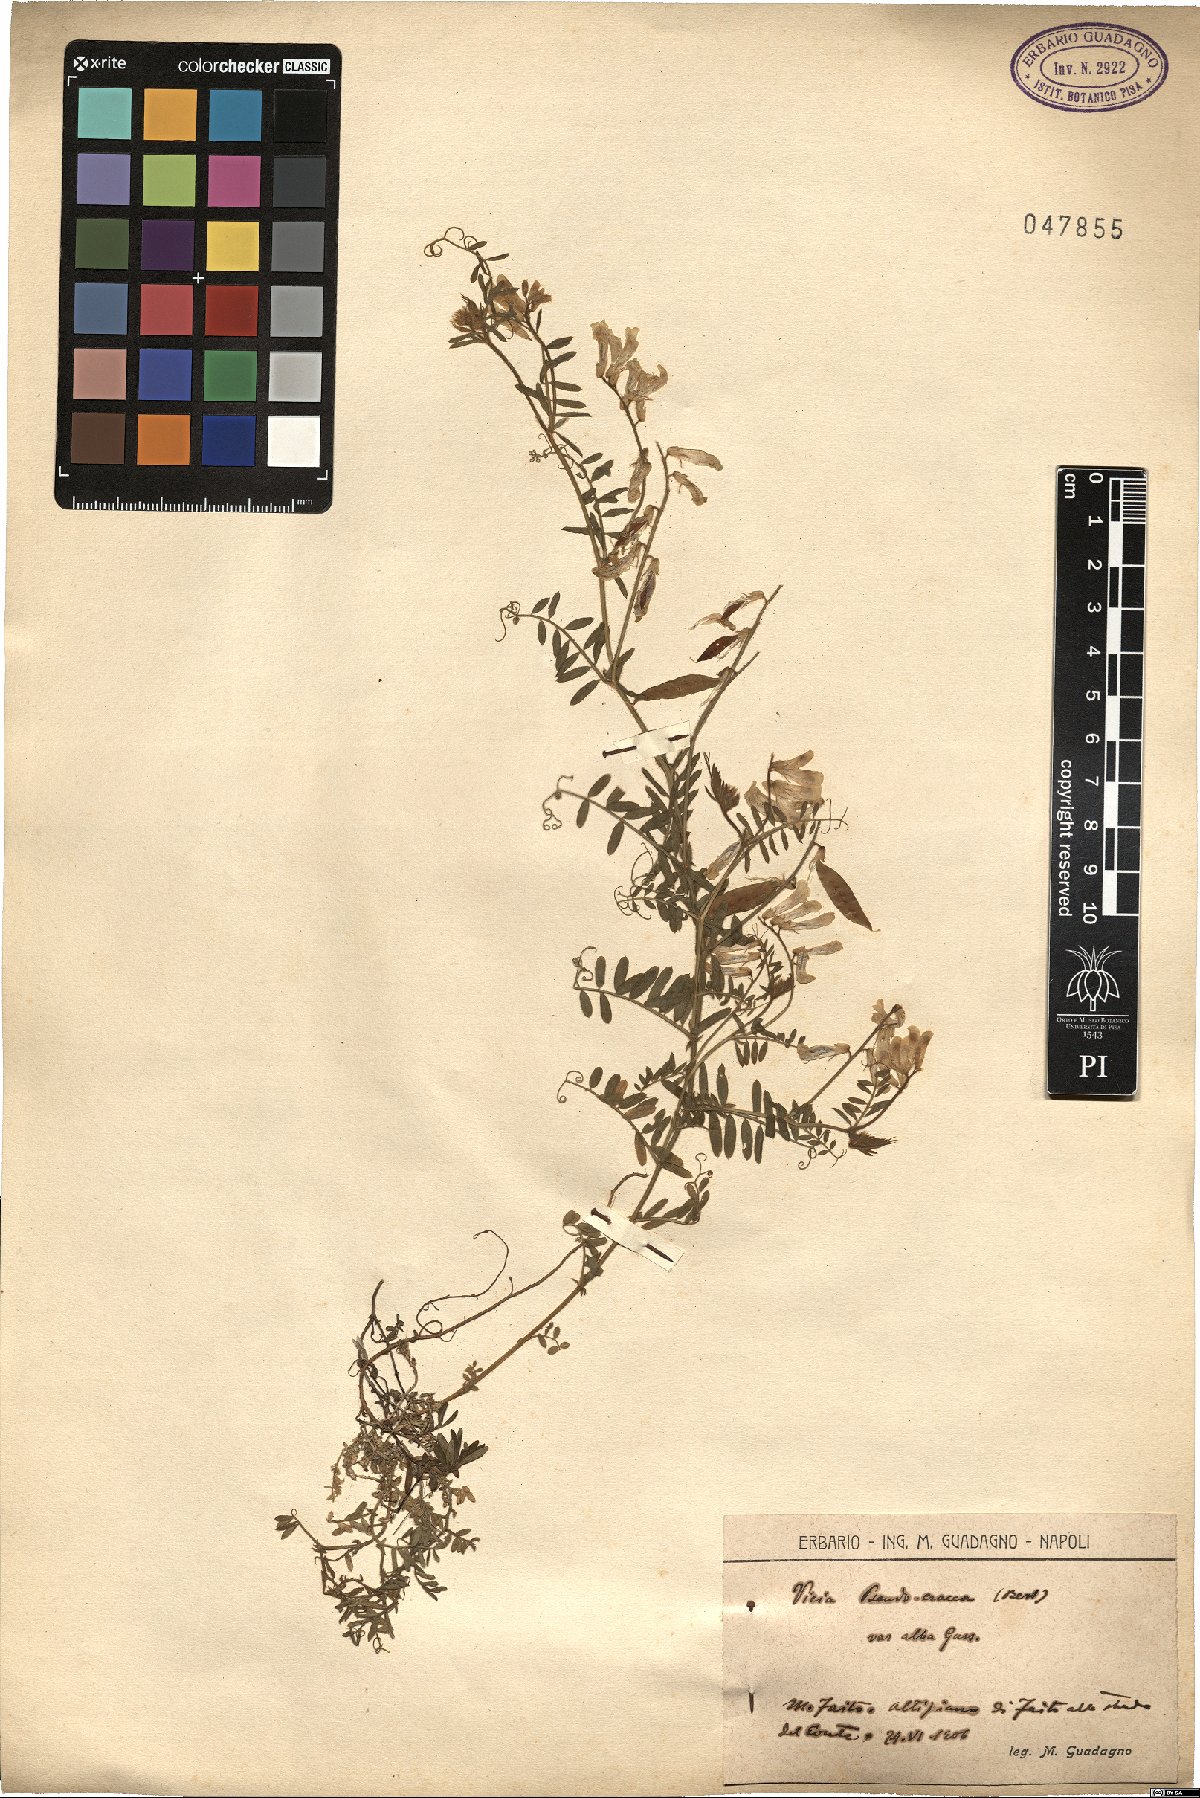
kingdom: Plantae
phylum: Tracheophyta
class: Magnoliopsida
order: Fabales
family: Fabaceae
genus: Vicia
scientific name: Vicia
